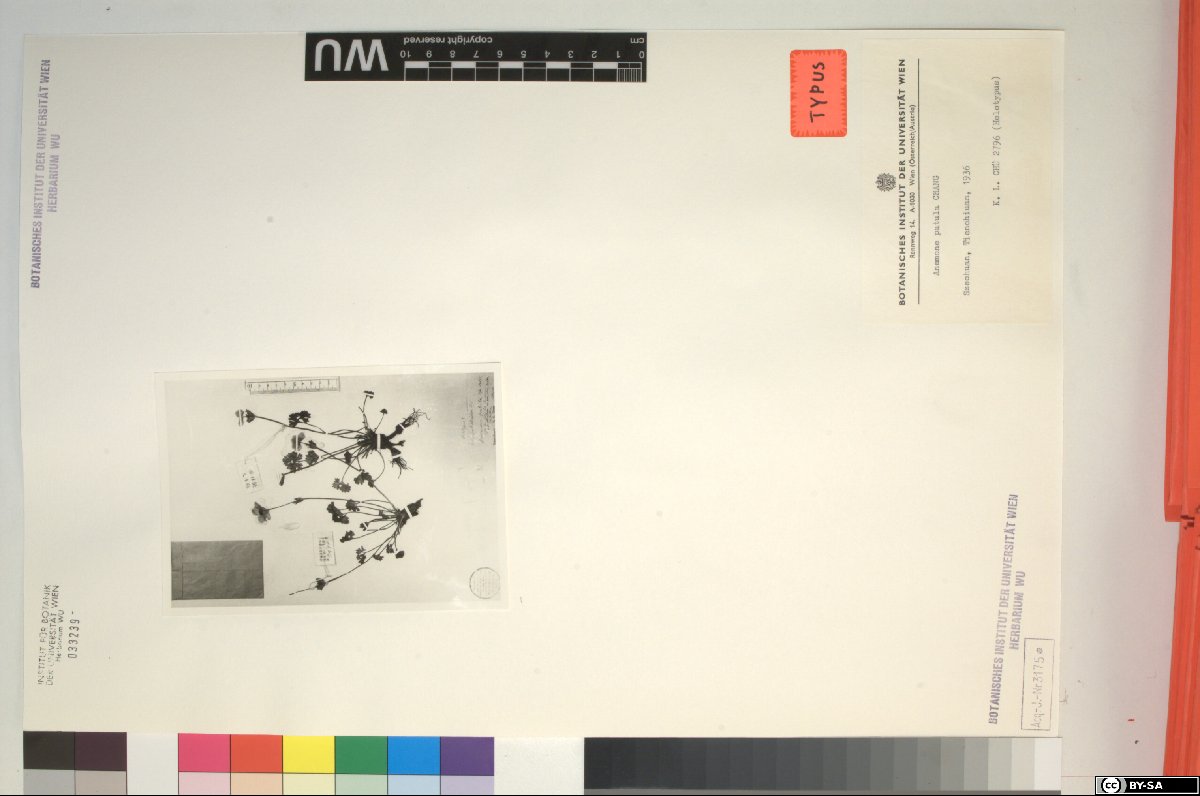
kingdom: Plantae
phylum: Tracheophyta
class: Magnoliopsida
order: Ranunculales
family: Ranunculaceae
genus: Anemonastrum
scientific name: Anemonastrum patulum
